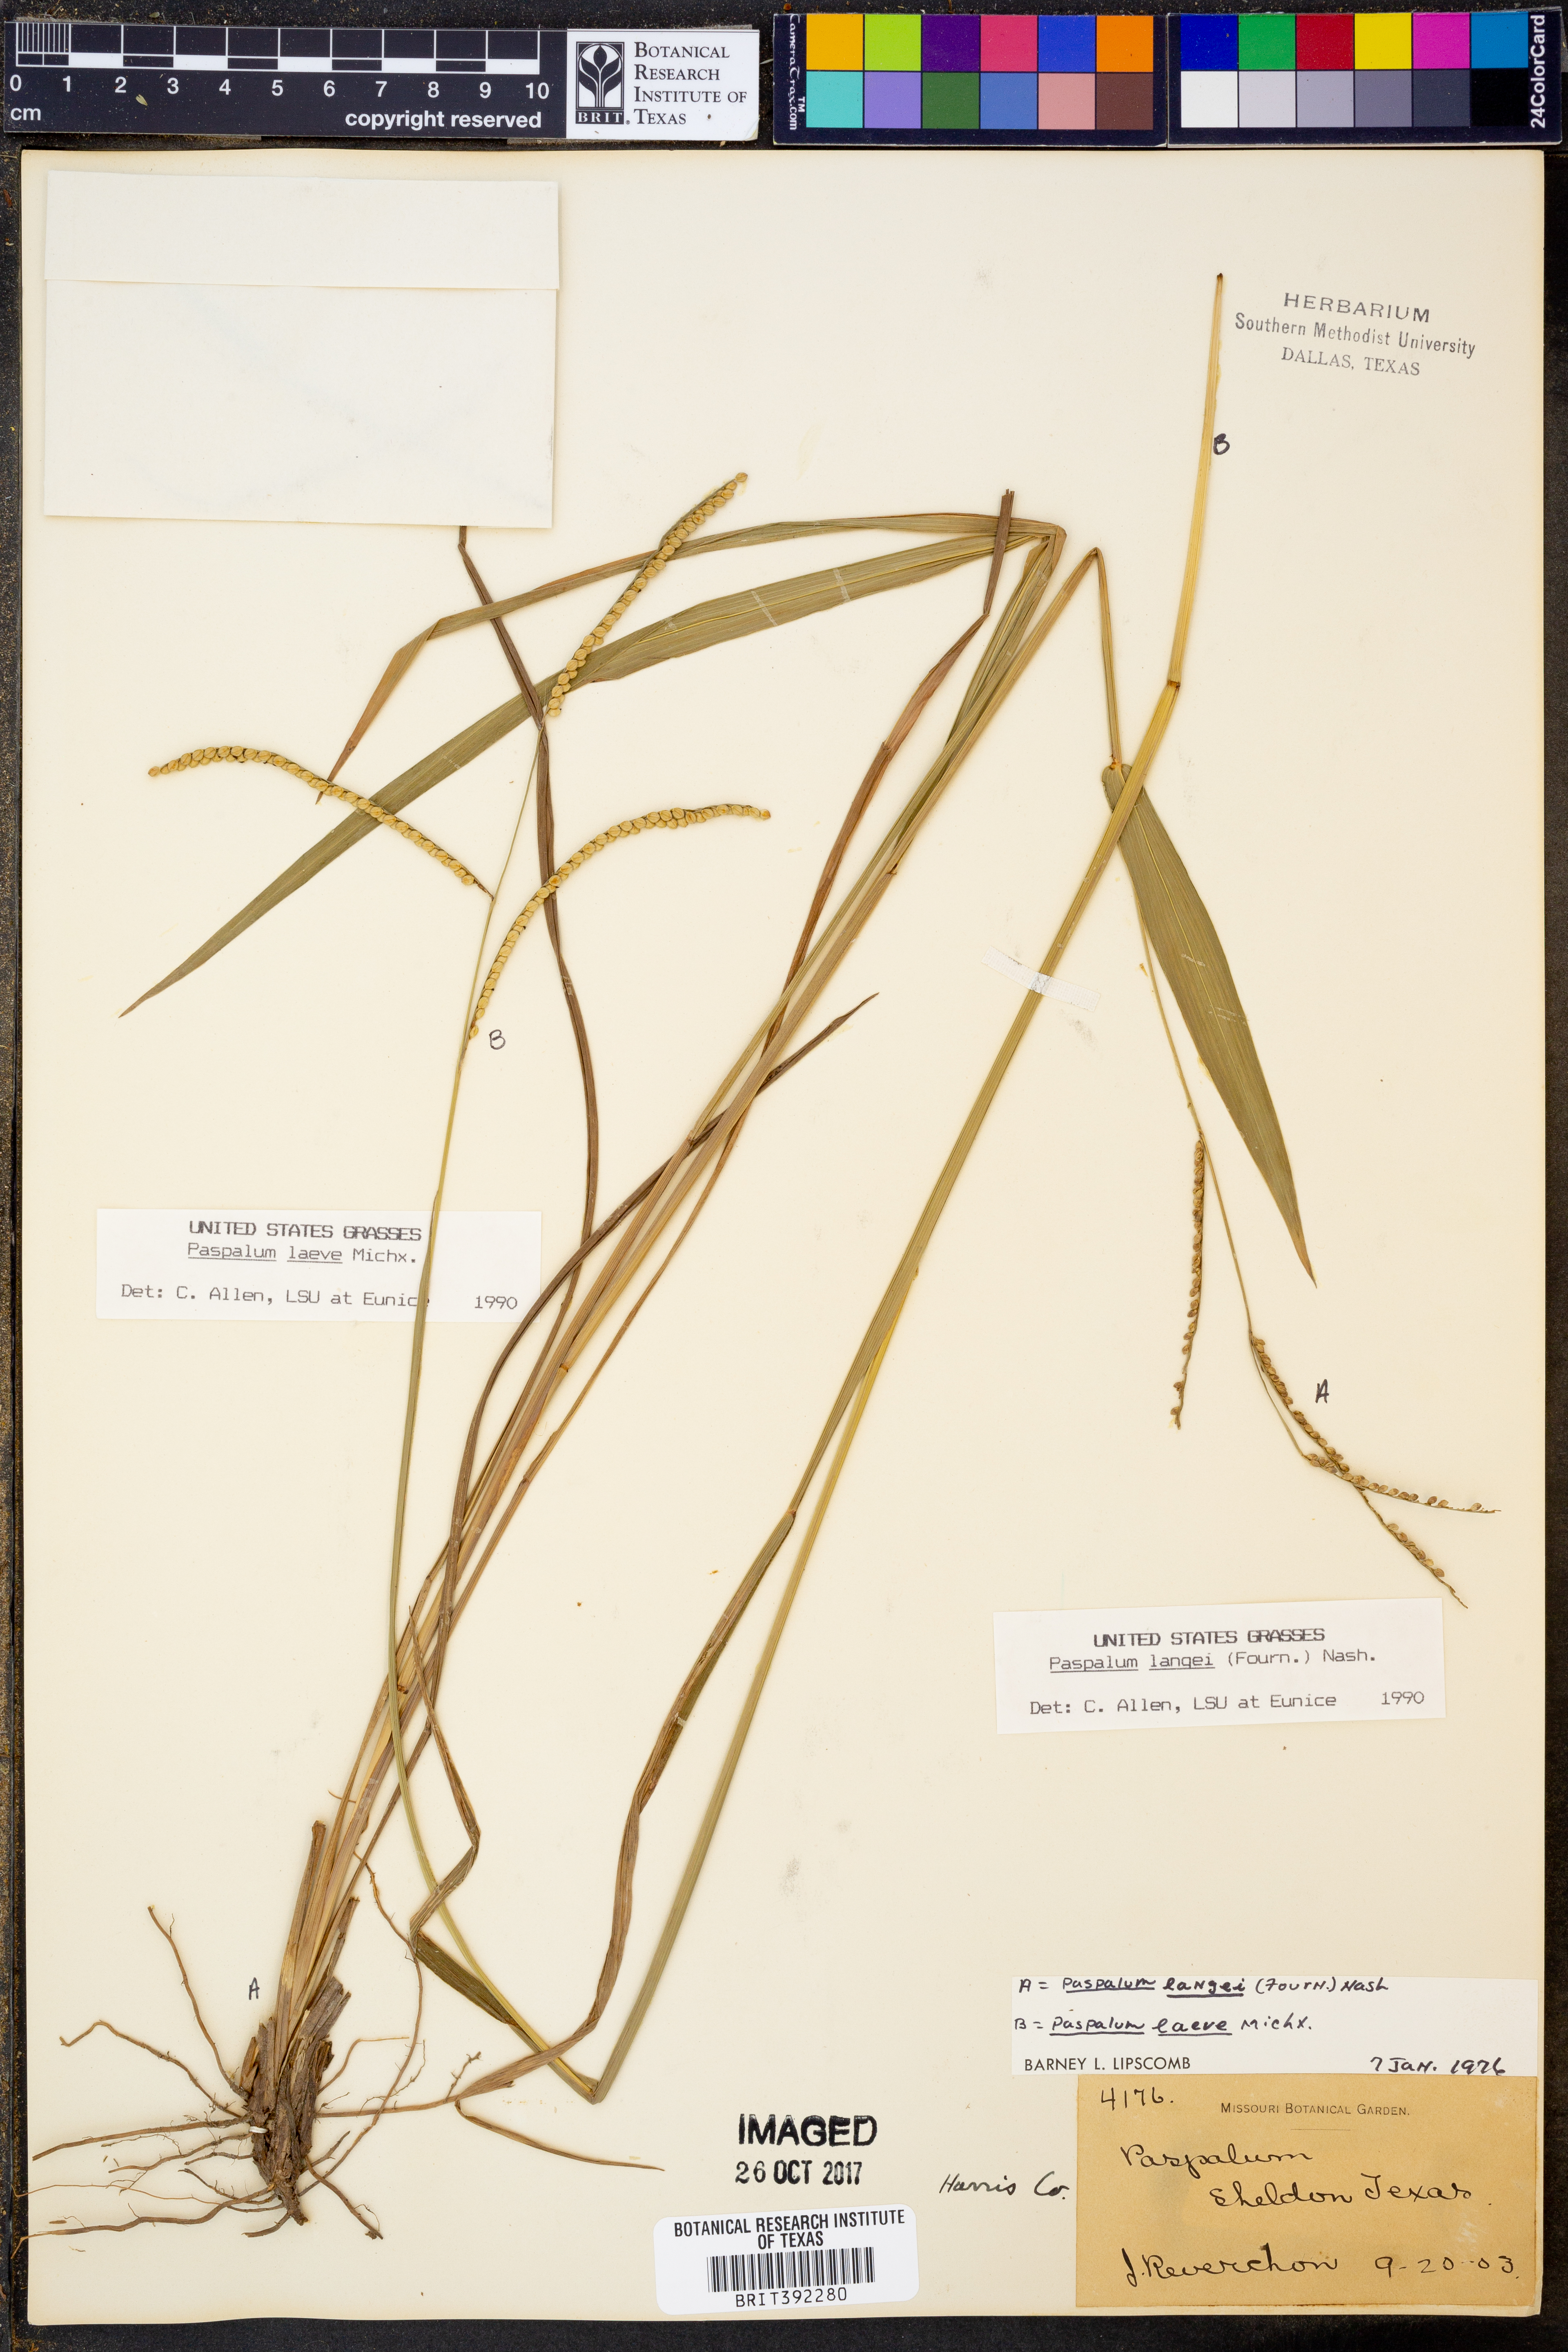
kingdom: Plantae
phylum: Tracheophyta
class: Liliopsida
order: Poales
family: Poaceae
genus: Paspalum
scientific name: Paspalum langei
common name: Rusty-seed paspalum
